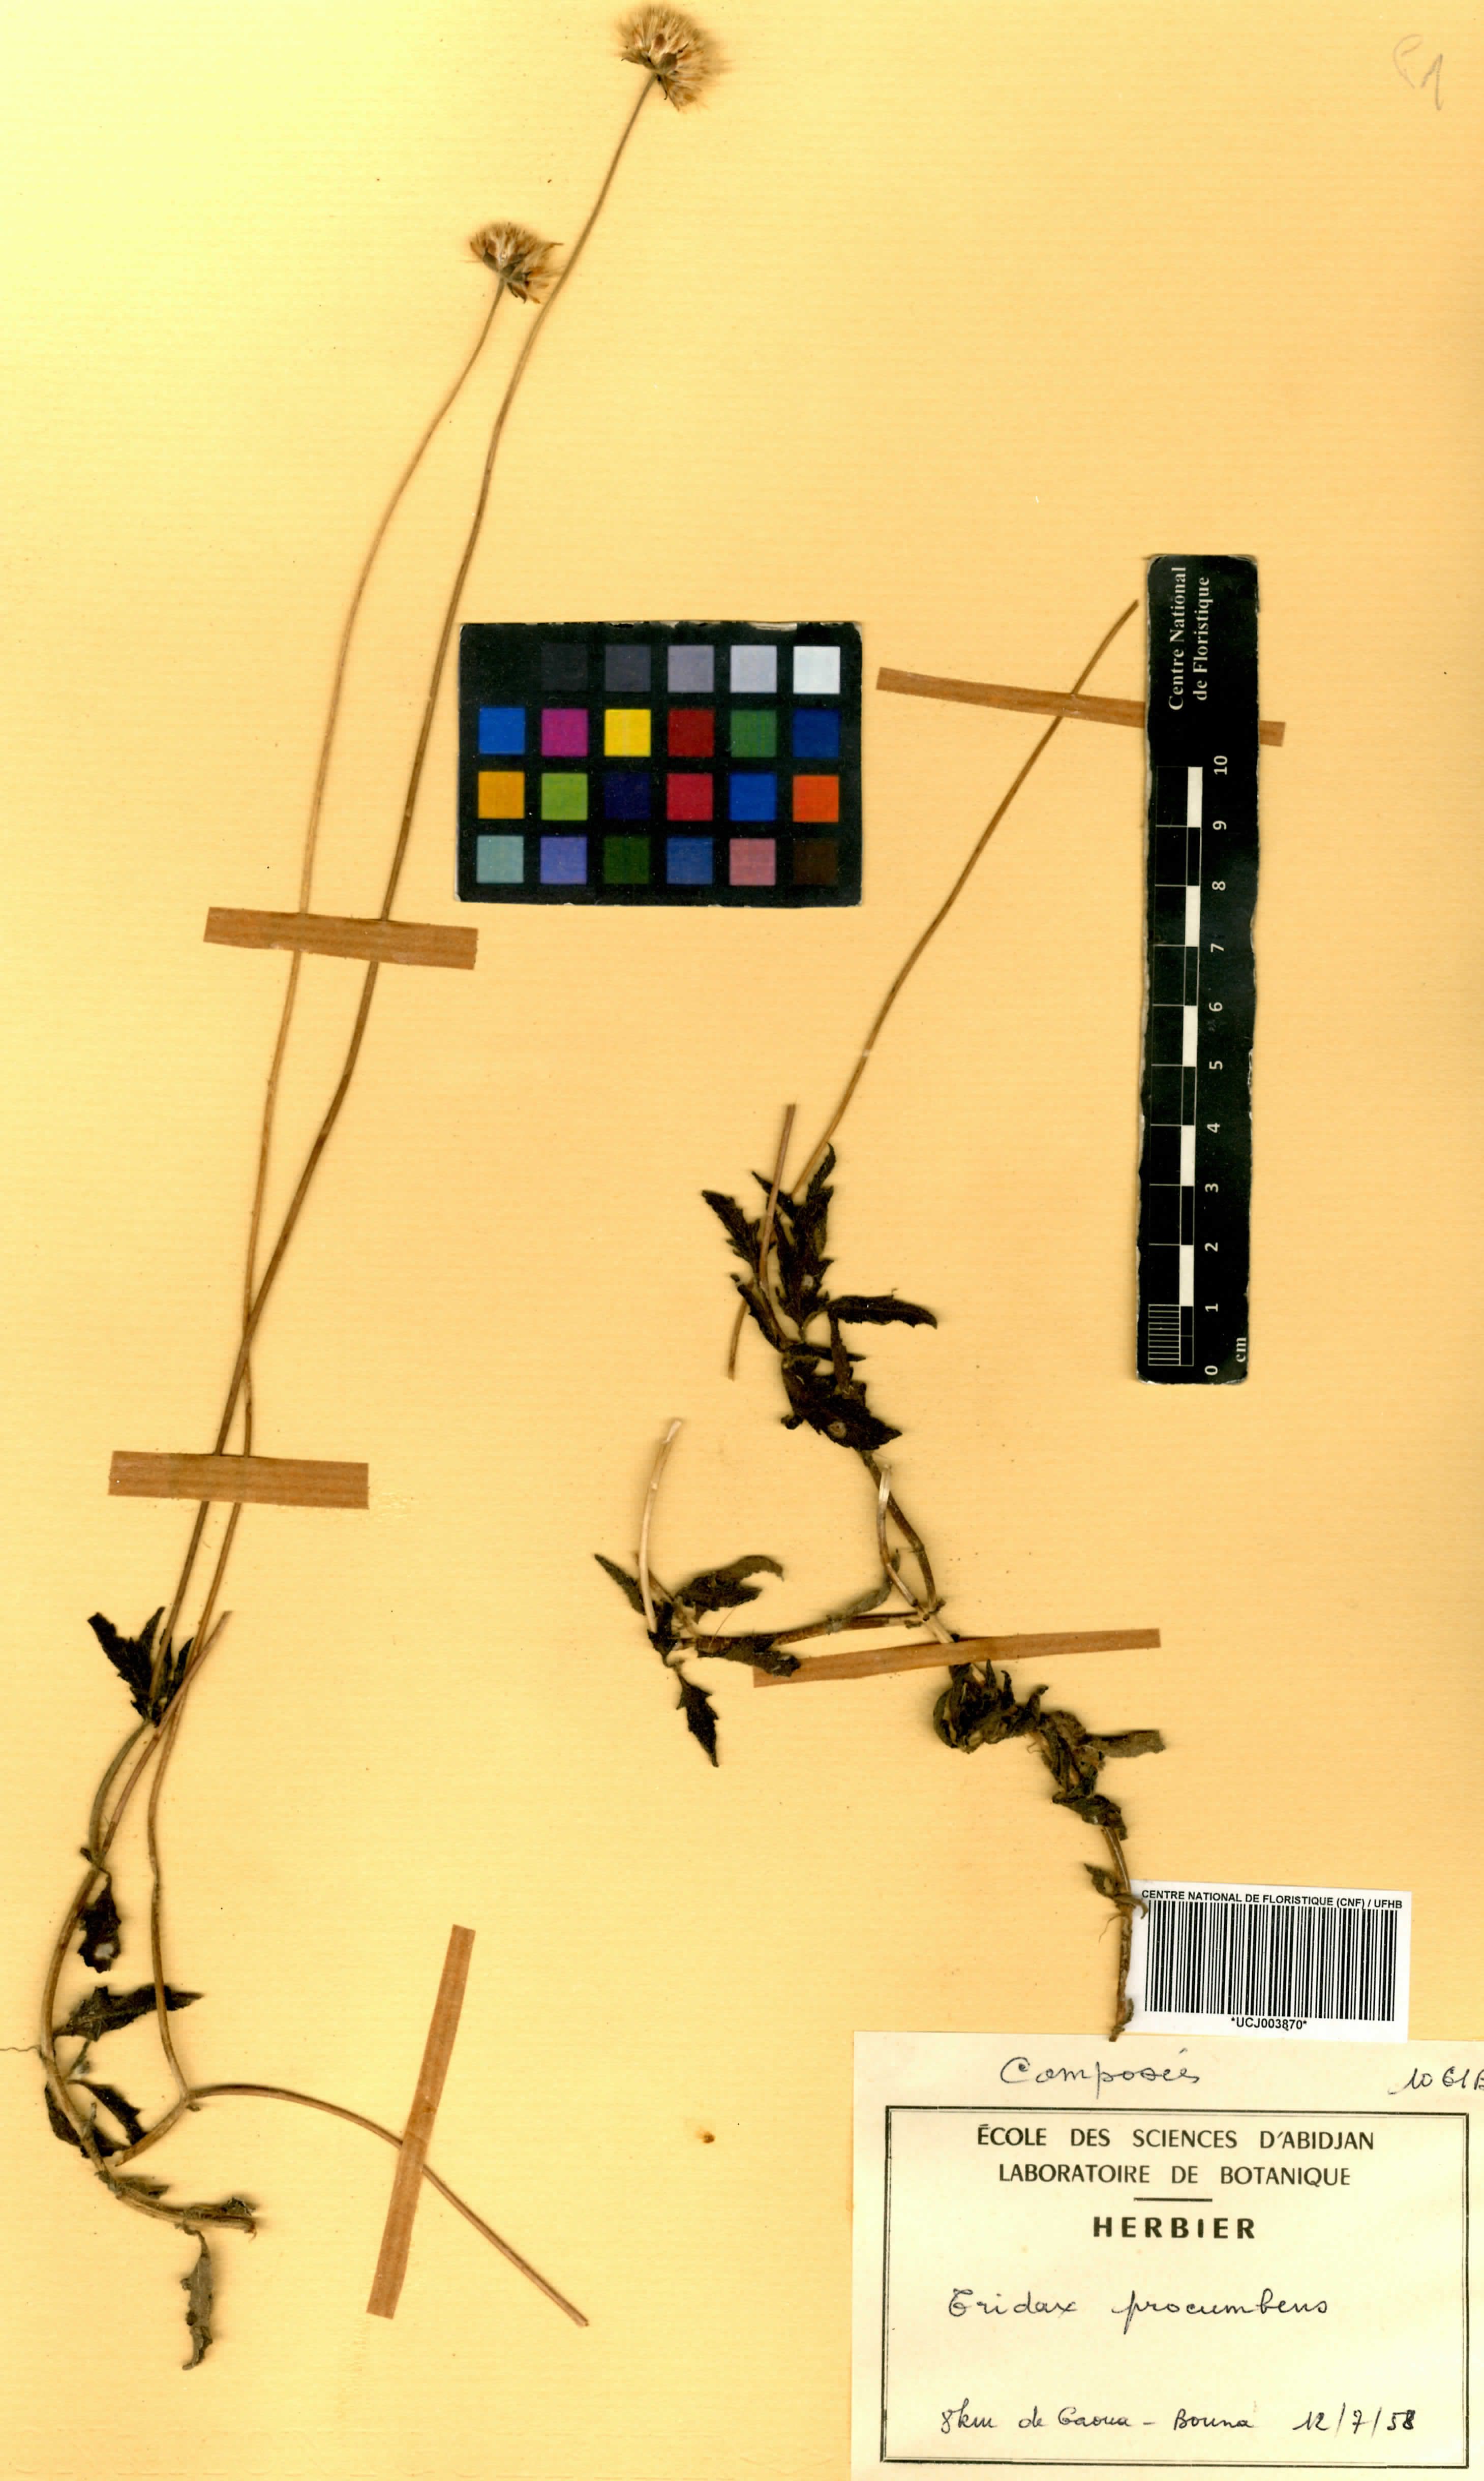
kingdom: Plantae
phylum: Tracheophyta
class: Magnoliopsida
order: Asterales
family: Asteraceae
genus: Tridax
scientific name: Tridax procumbens
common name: Coatbuttons
